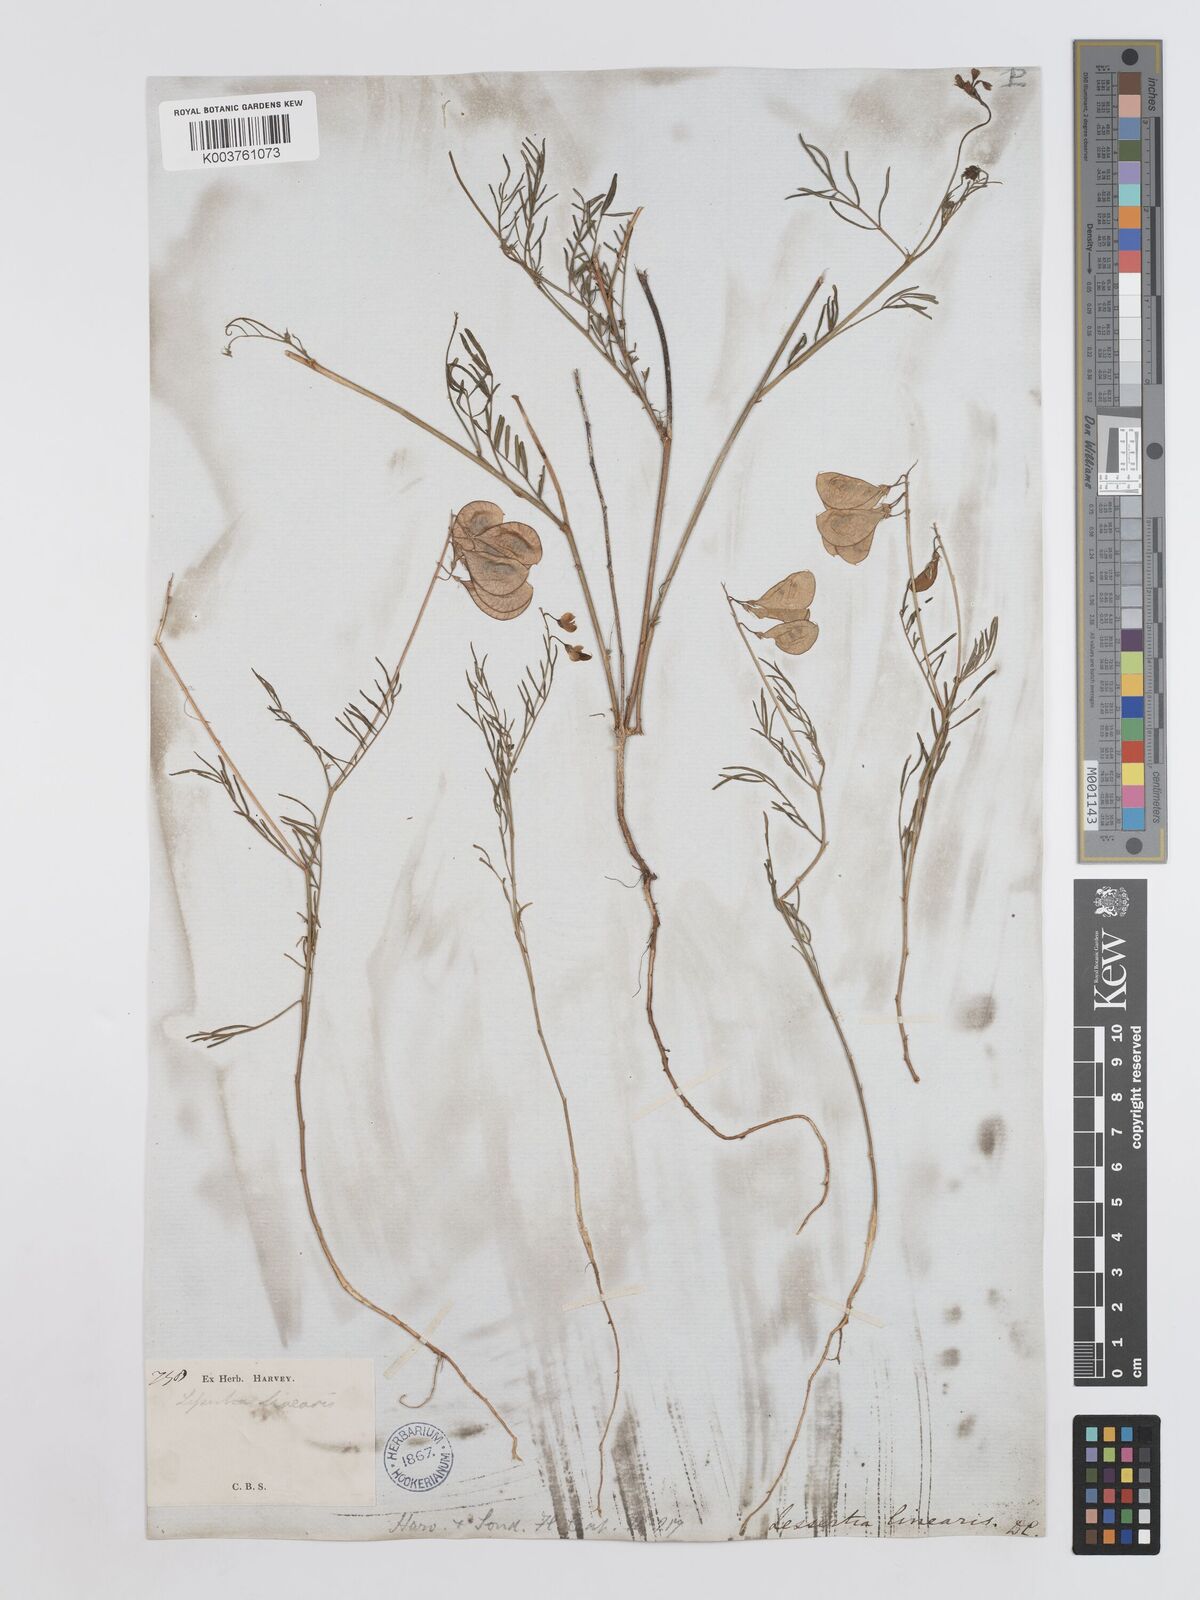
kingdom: Plantae
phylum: Tracheophyta
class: Magnoliopsida
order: Fabales
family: Fabaceae
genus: Lessertia
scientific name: Lessertia herbacea
